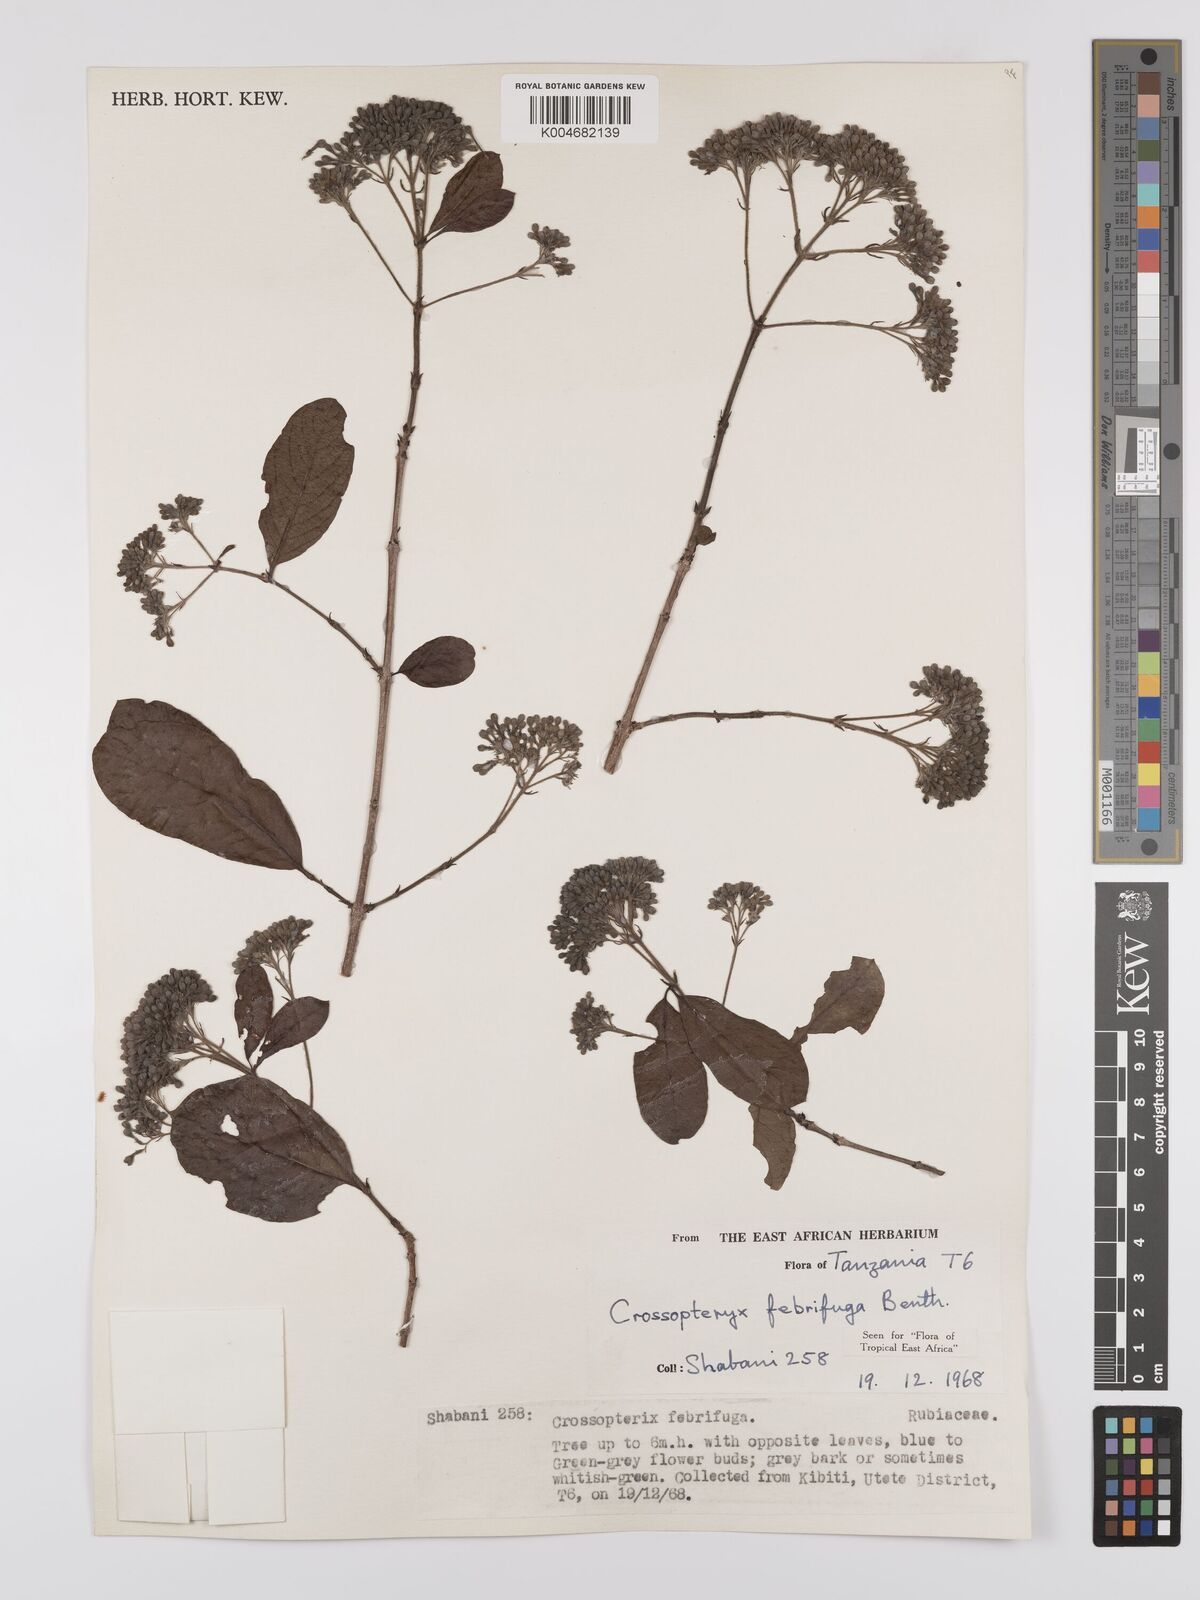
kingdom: Plantae
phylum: Tracheophyta
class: Magnoliopsida
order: Gentianales
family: Rubiaceae
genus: Crossopteryx
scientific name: Crossopteryx febrifuga
